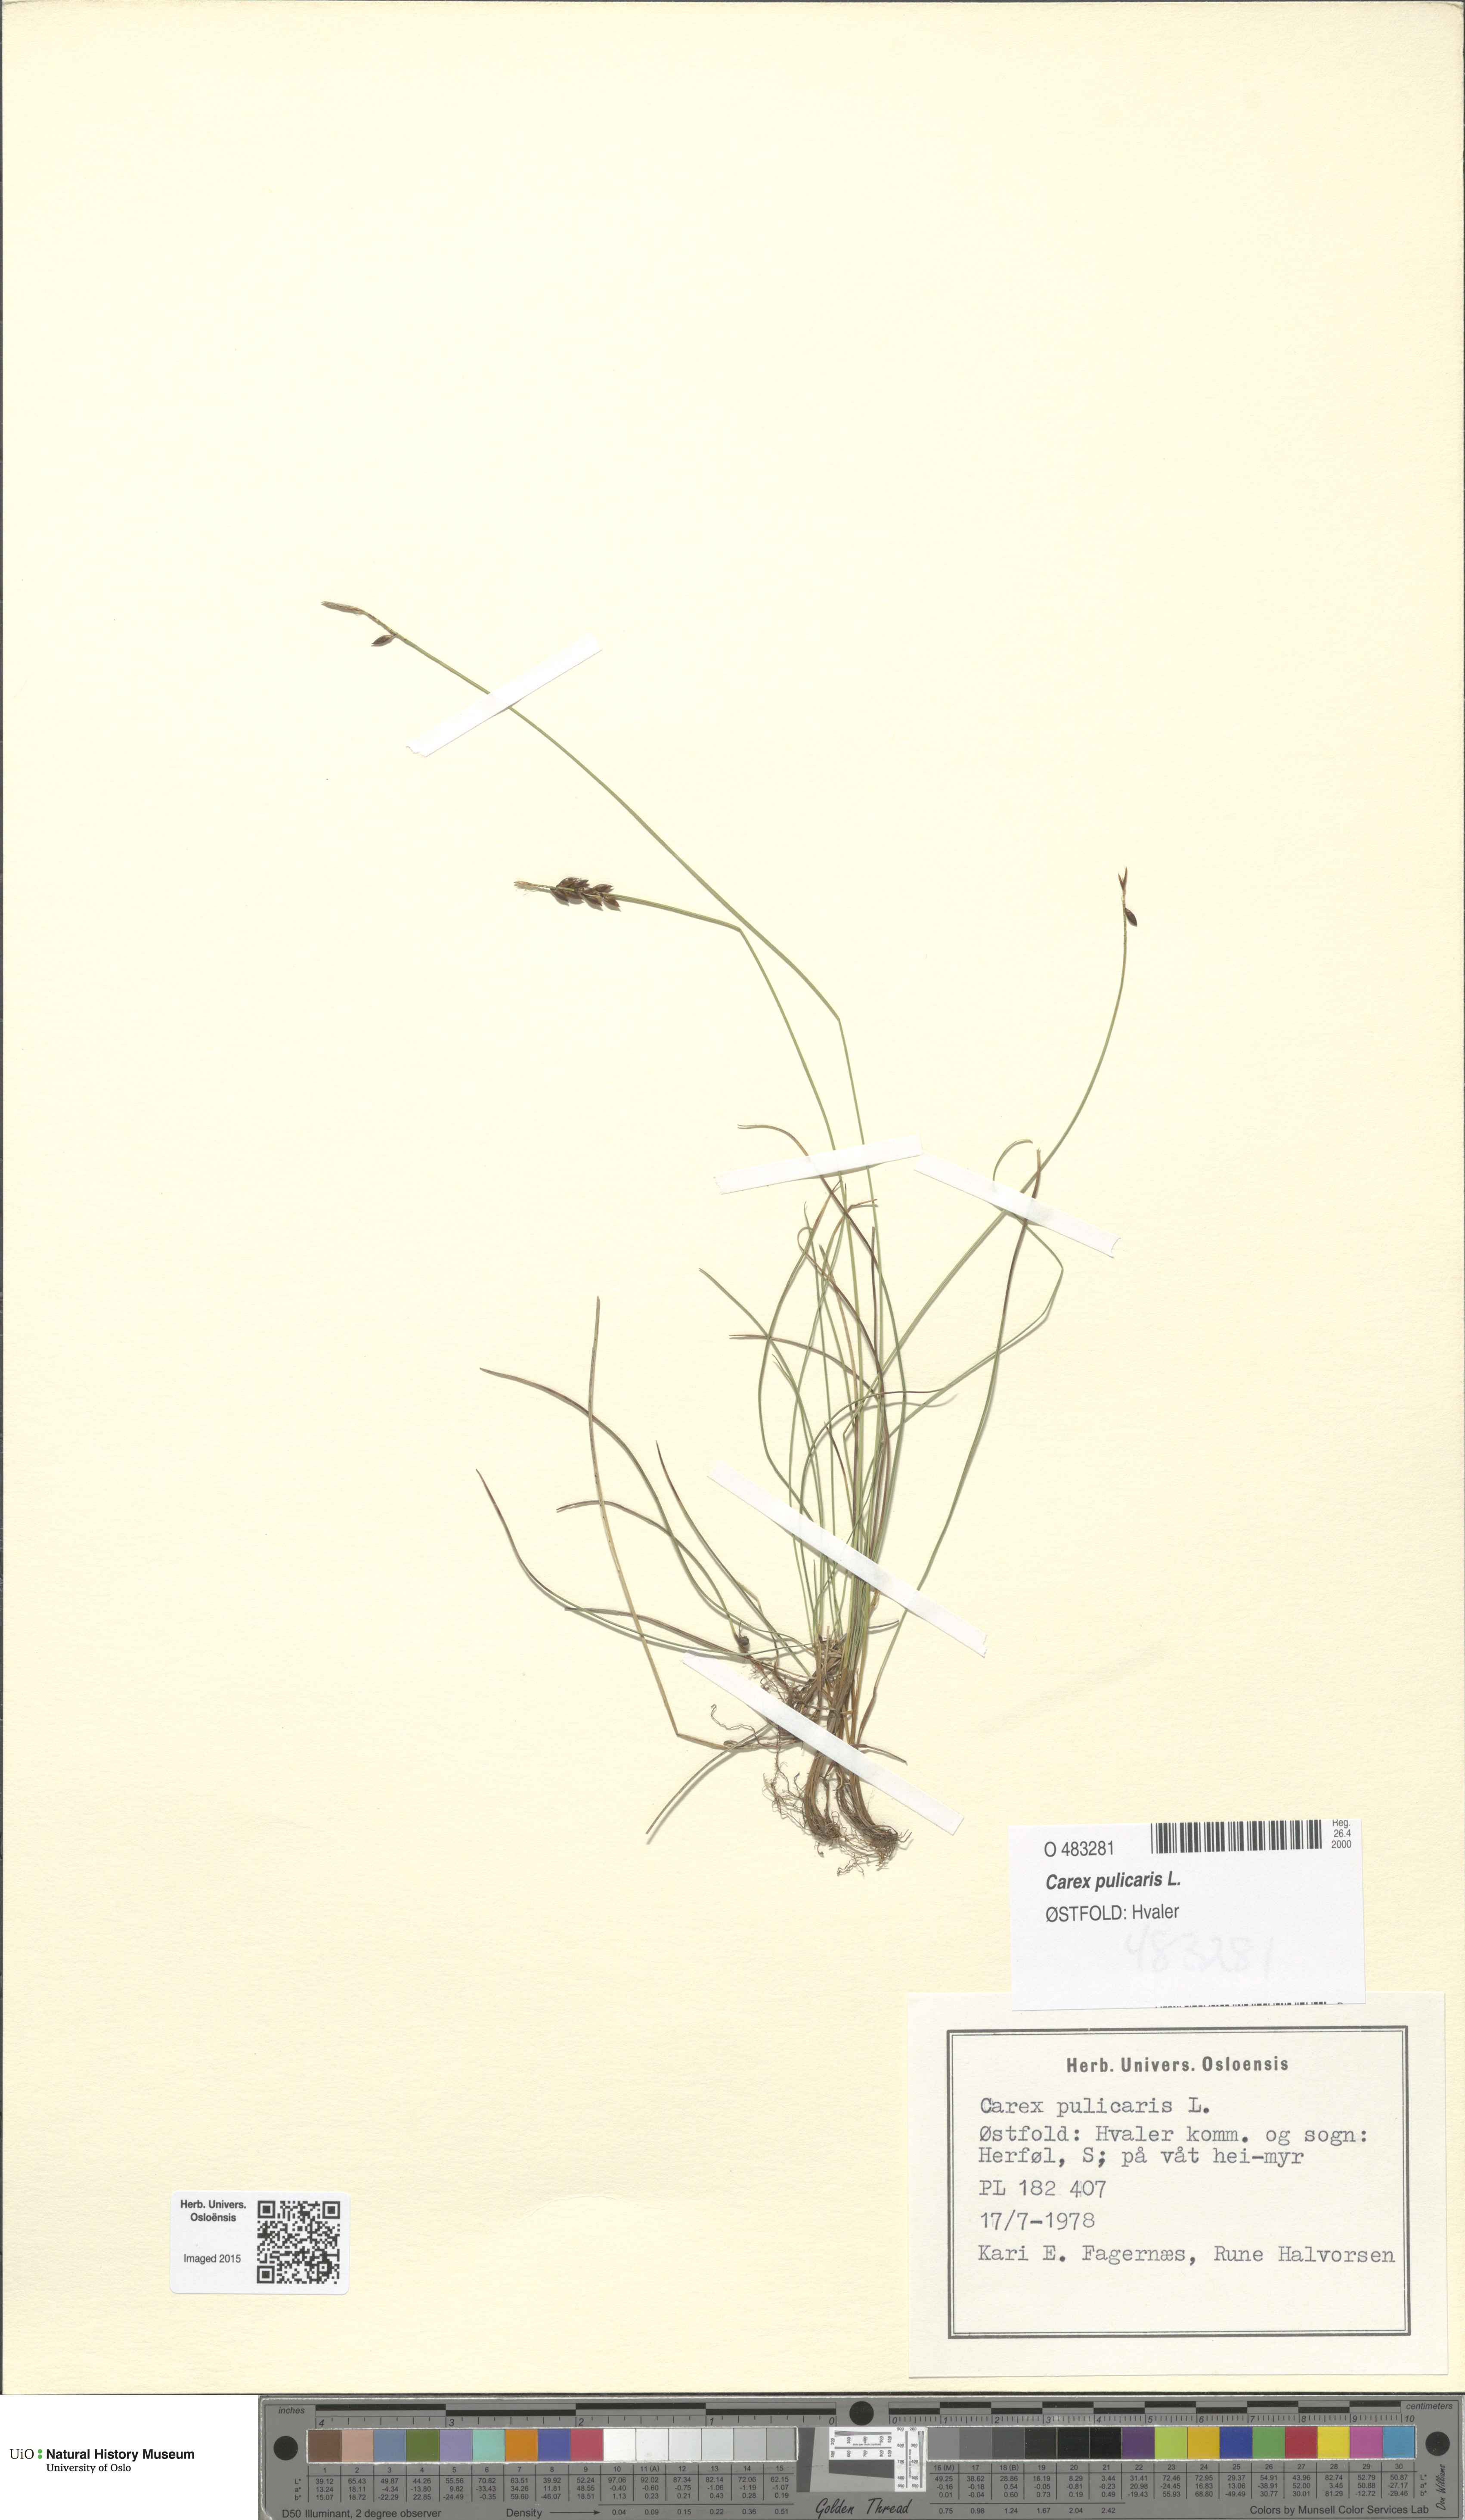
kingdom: Plantae
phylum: Tracheophyta
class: Liliopsida
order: Poales
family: Cyperaceae
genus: Carex
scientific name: Carex pulicaris
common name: Flea sedge
